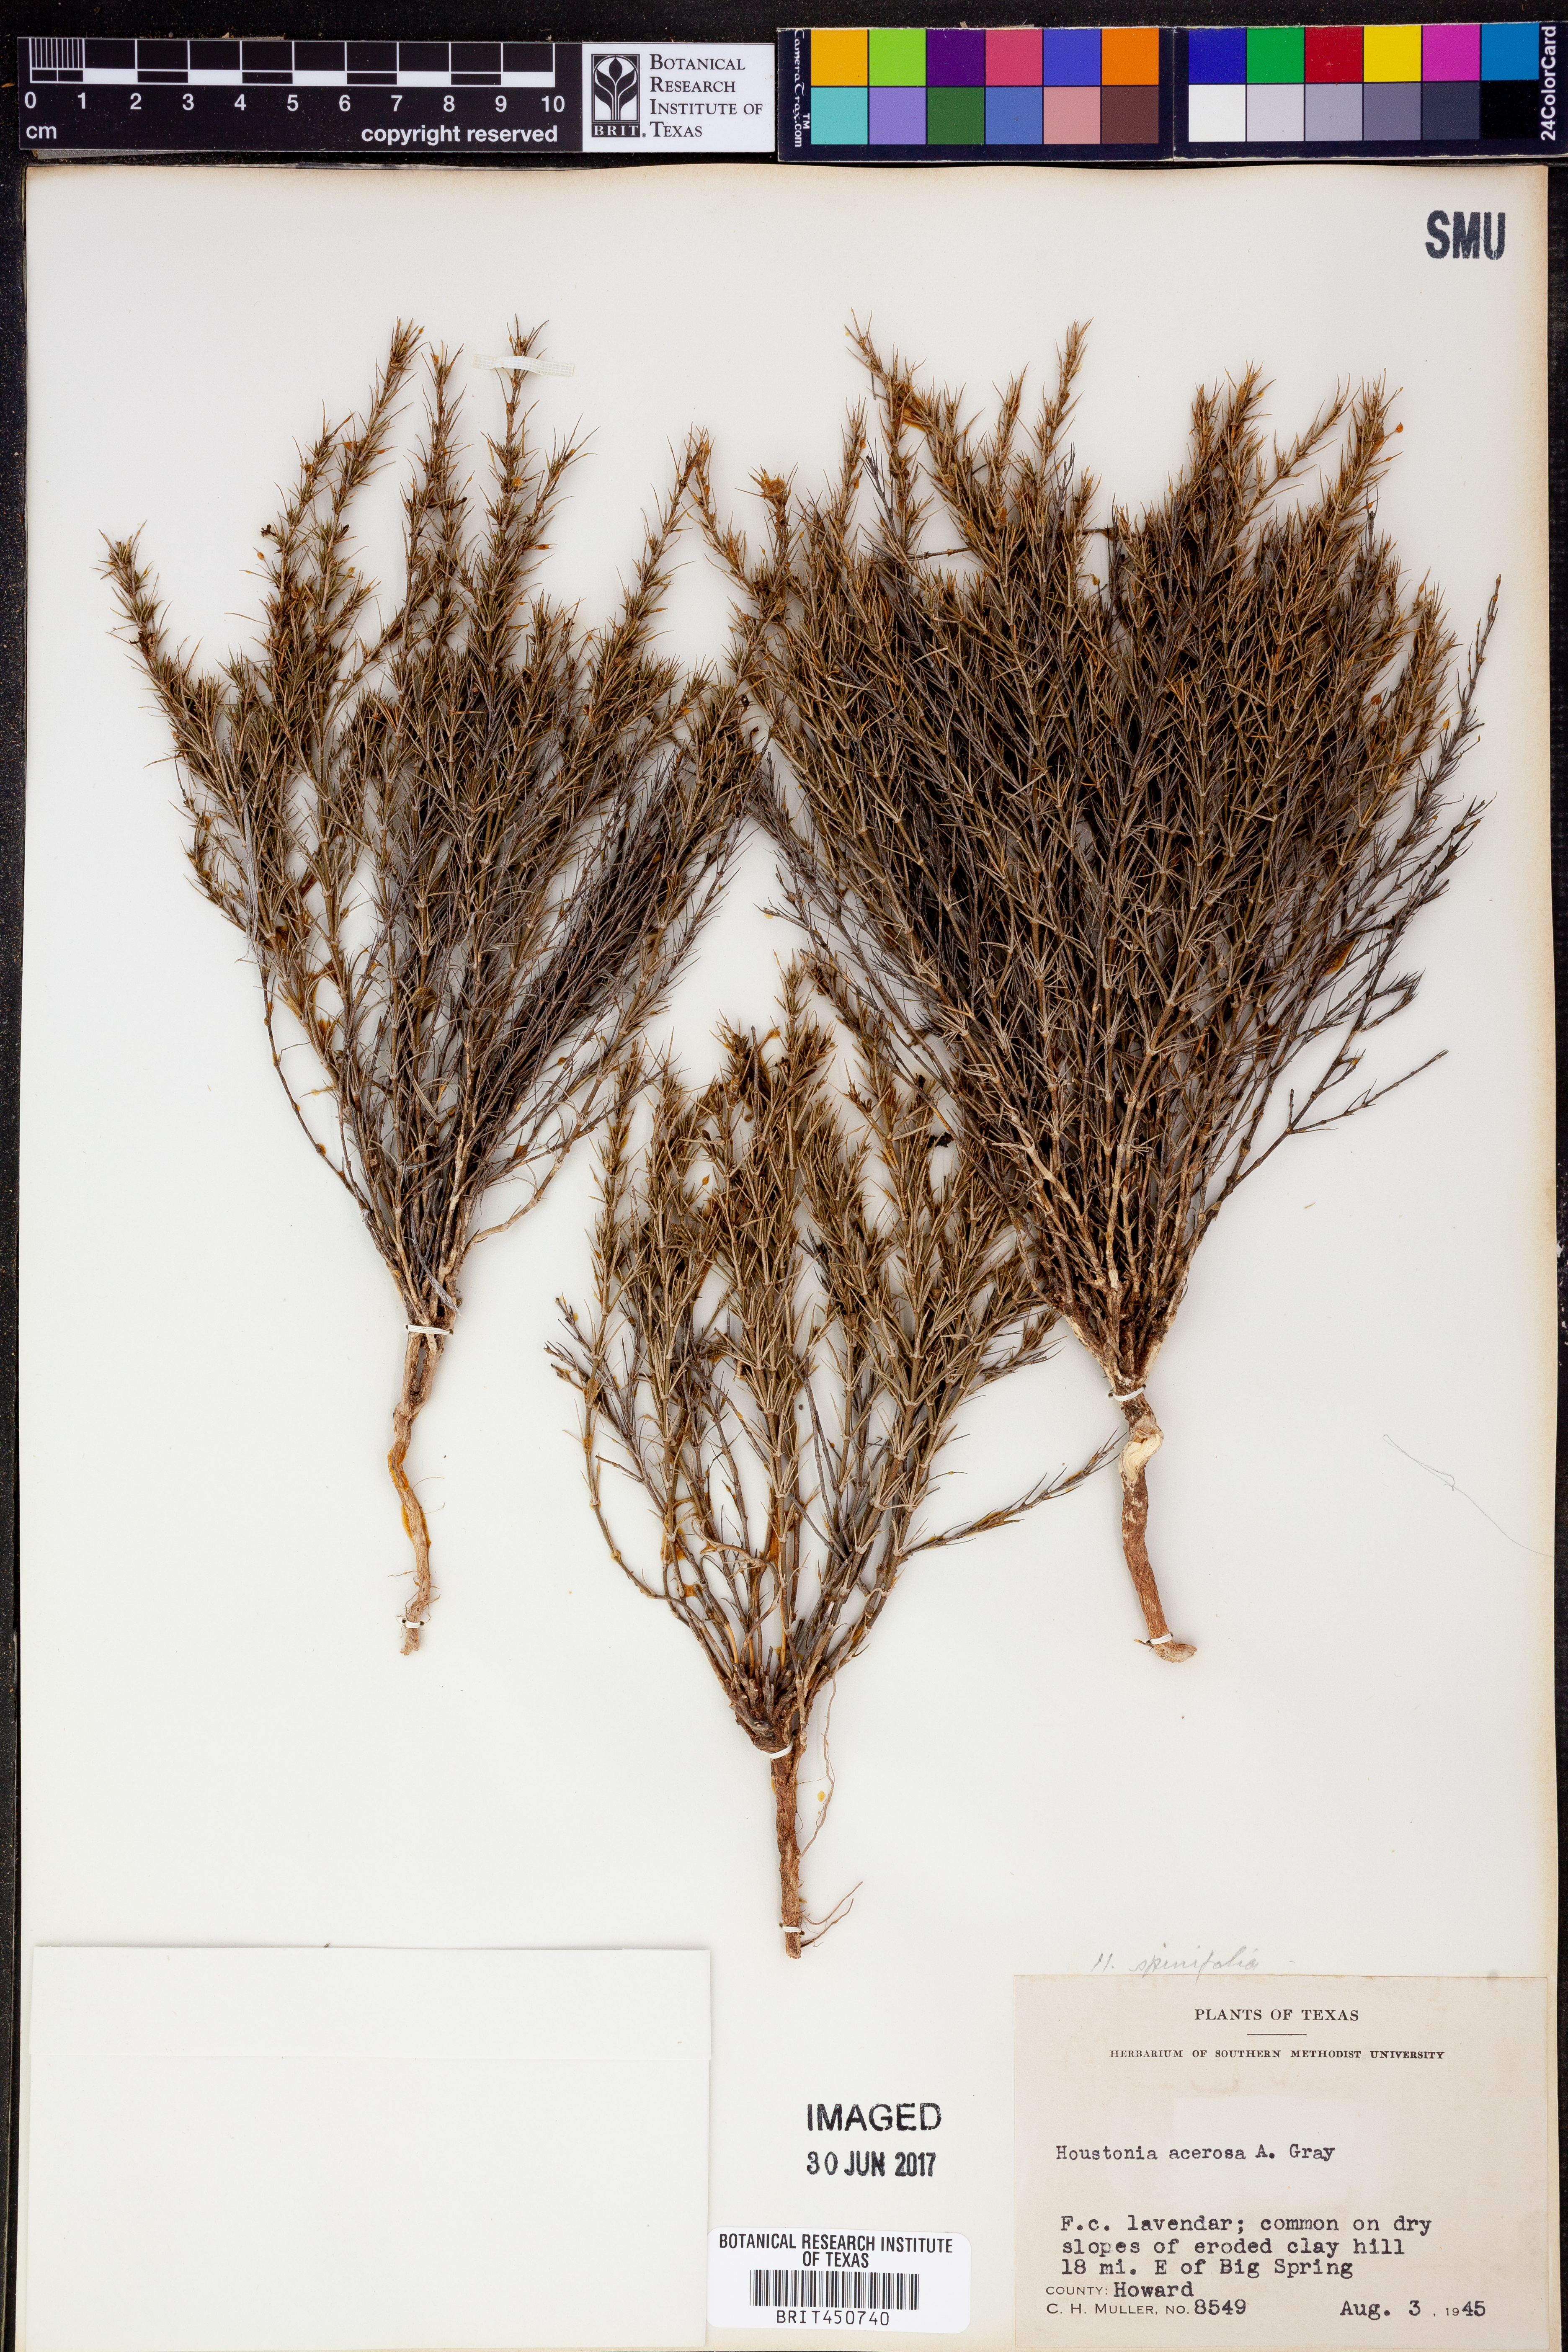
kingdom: Plantae
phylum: Tracheophyta
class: Magnoliopsida
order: Gentianales
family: Rubiaceae
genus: Houstonia
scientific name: Houstonia acerosa
